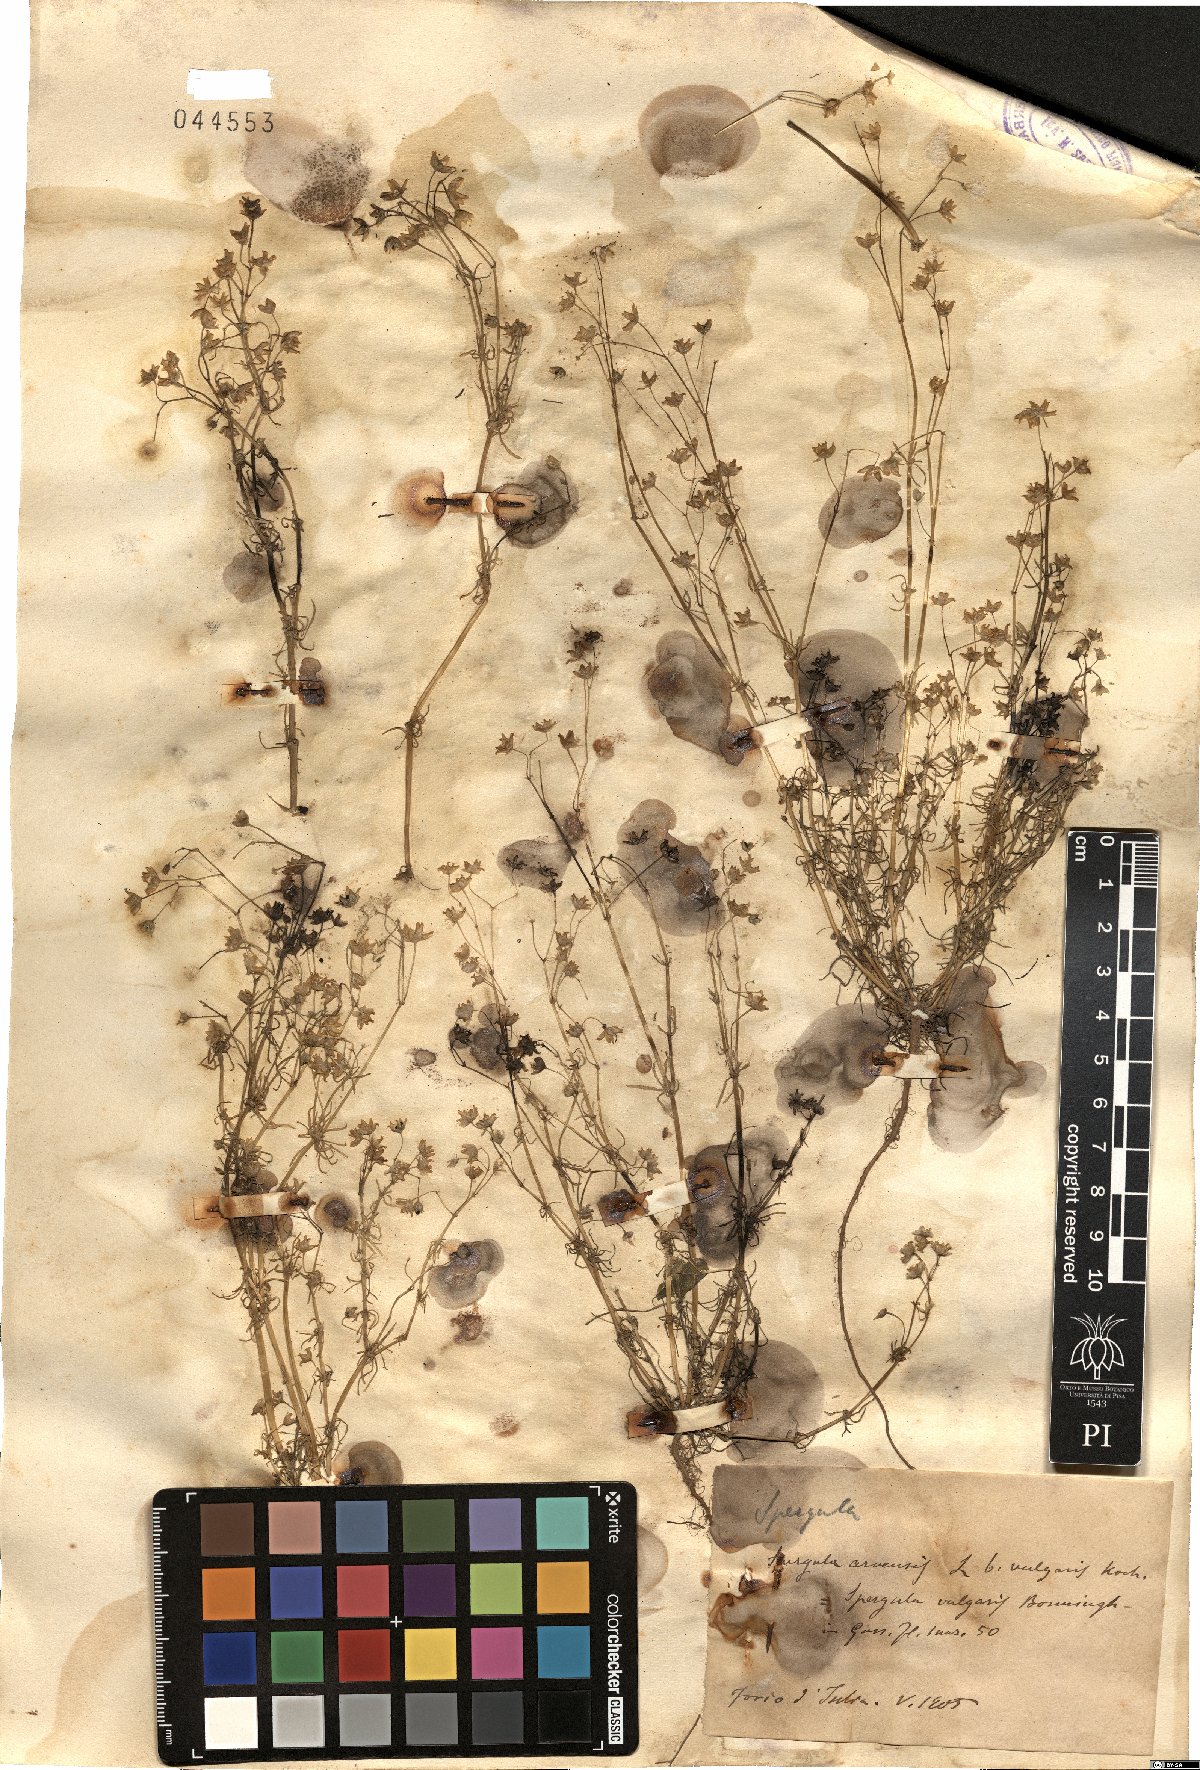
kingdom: Plantae
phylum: Tracheophyta
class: Magnoliopsida
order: Caryophyllales
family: Caryophyllaceae
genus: Spergula
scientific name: Spergula arvensis
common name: Corn spurrey
